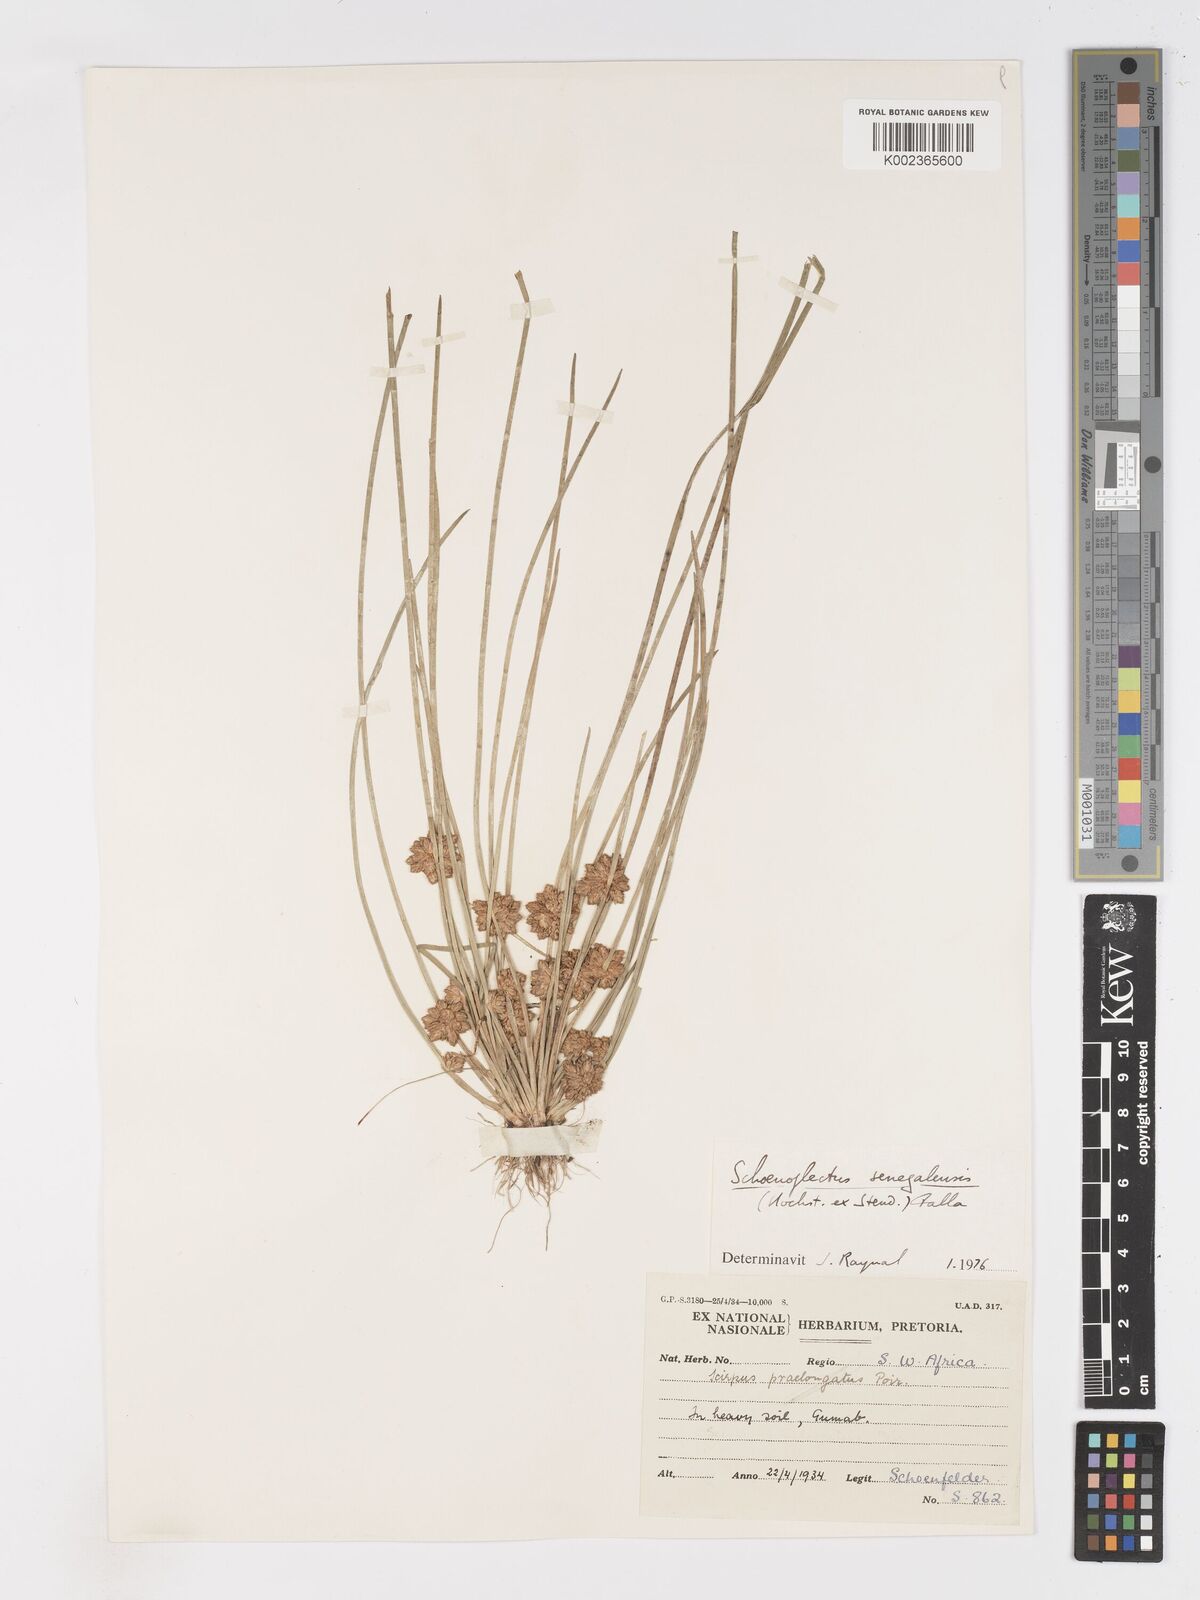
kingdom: Plantae
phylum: Tracheophyta
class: Liliopsida
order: Poales
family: Cyperaceae
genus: Schoenoplectiella
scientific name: Schoenoplectiella senegalensis
